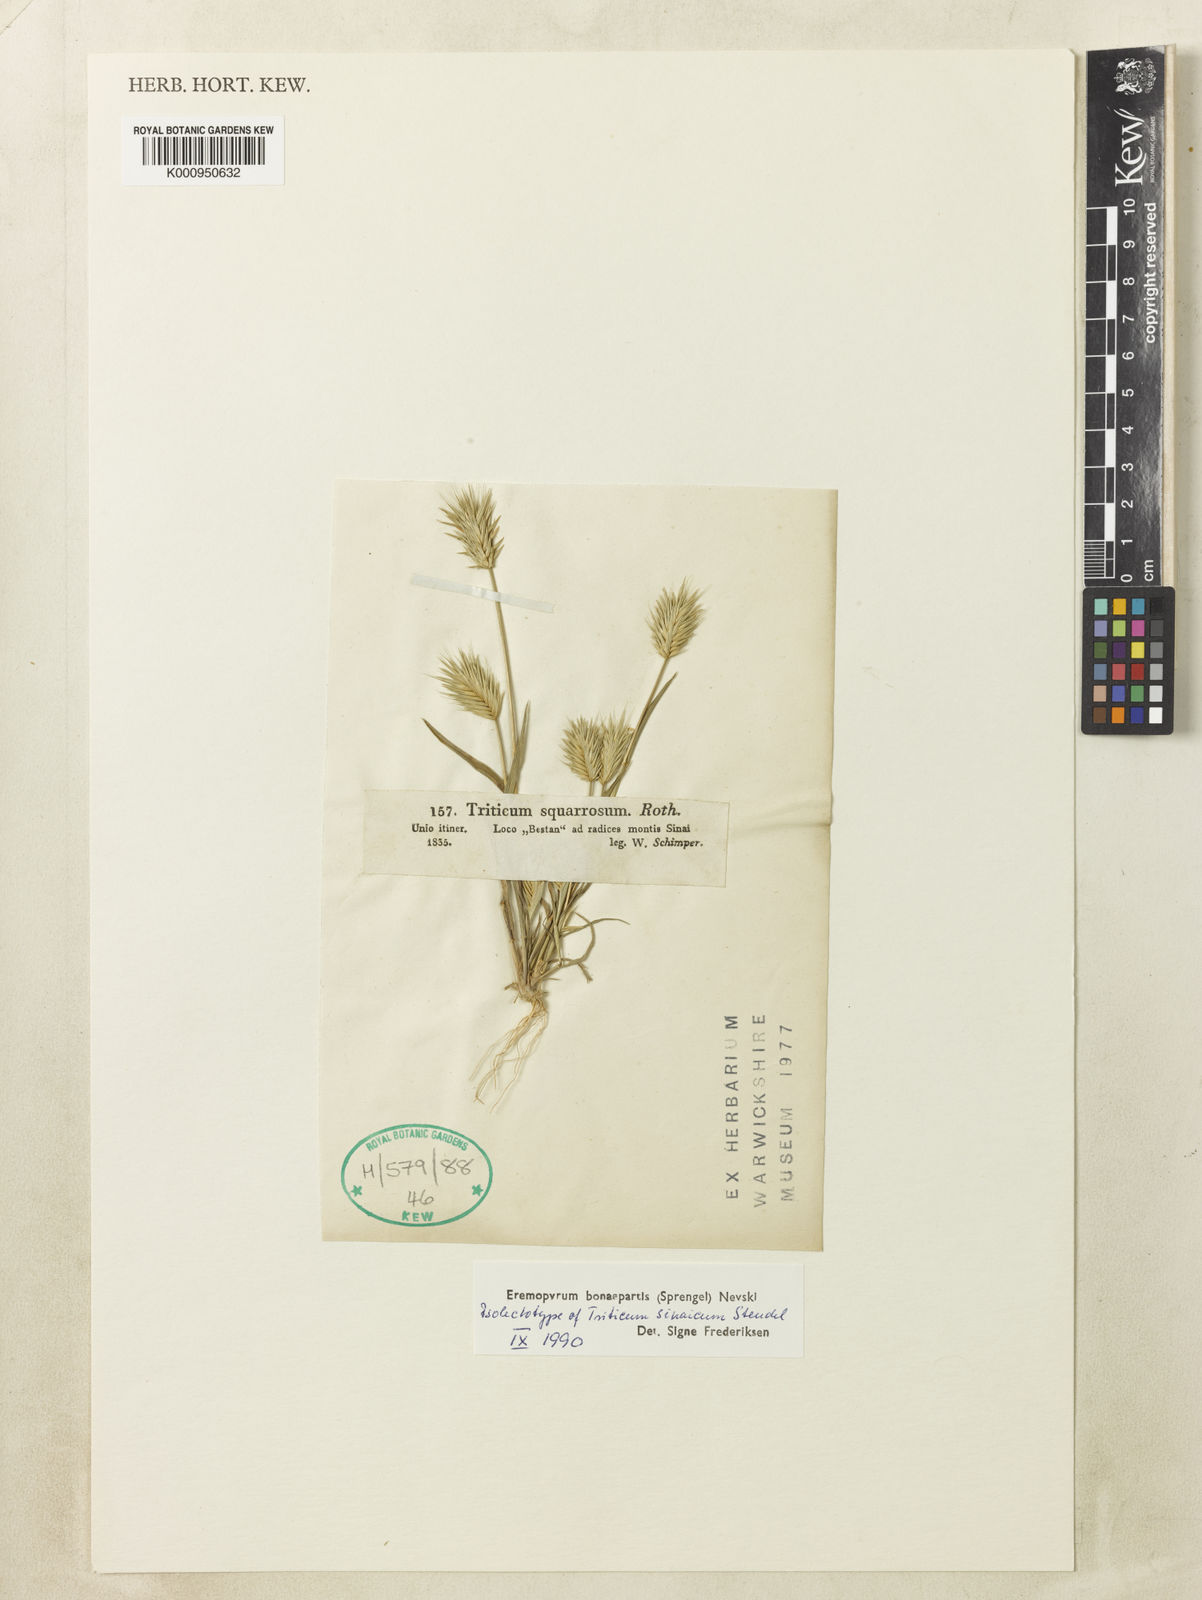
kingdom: Plantae
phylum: Tracheophyta
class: Liliopsida
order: Poales
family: Poaceae
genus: Eremopyrum
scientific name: Eremopyrum bonaepartis
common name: Tapertip false wheatgrass
